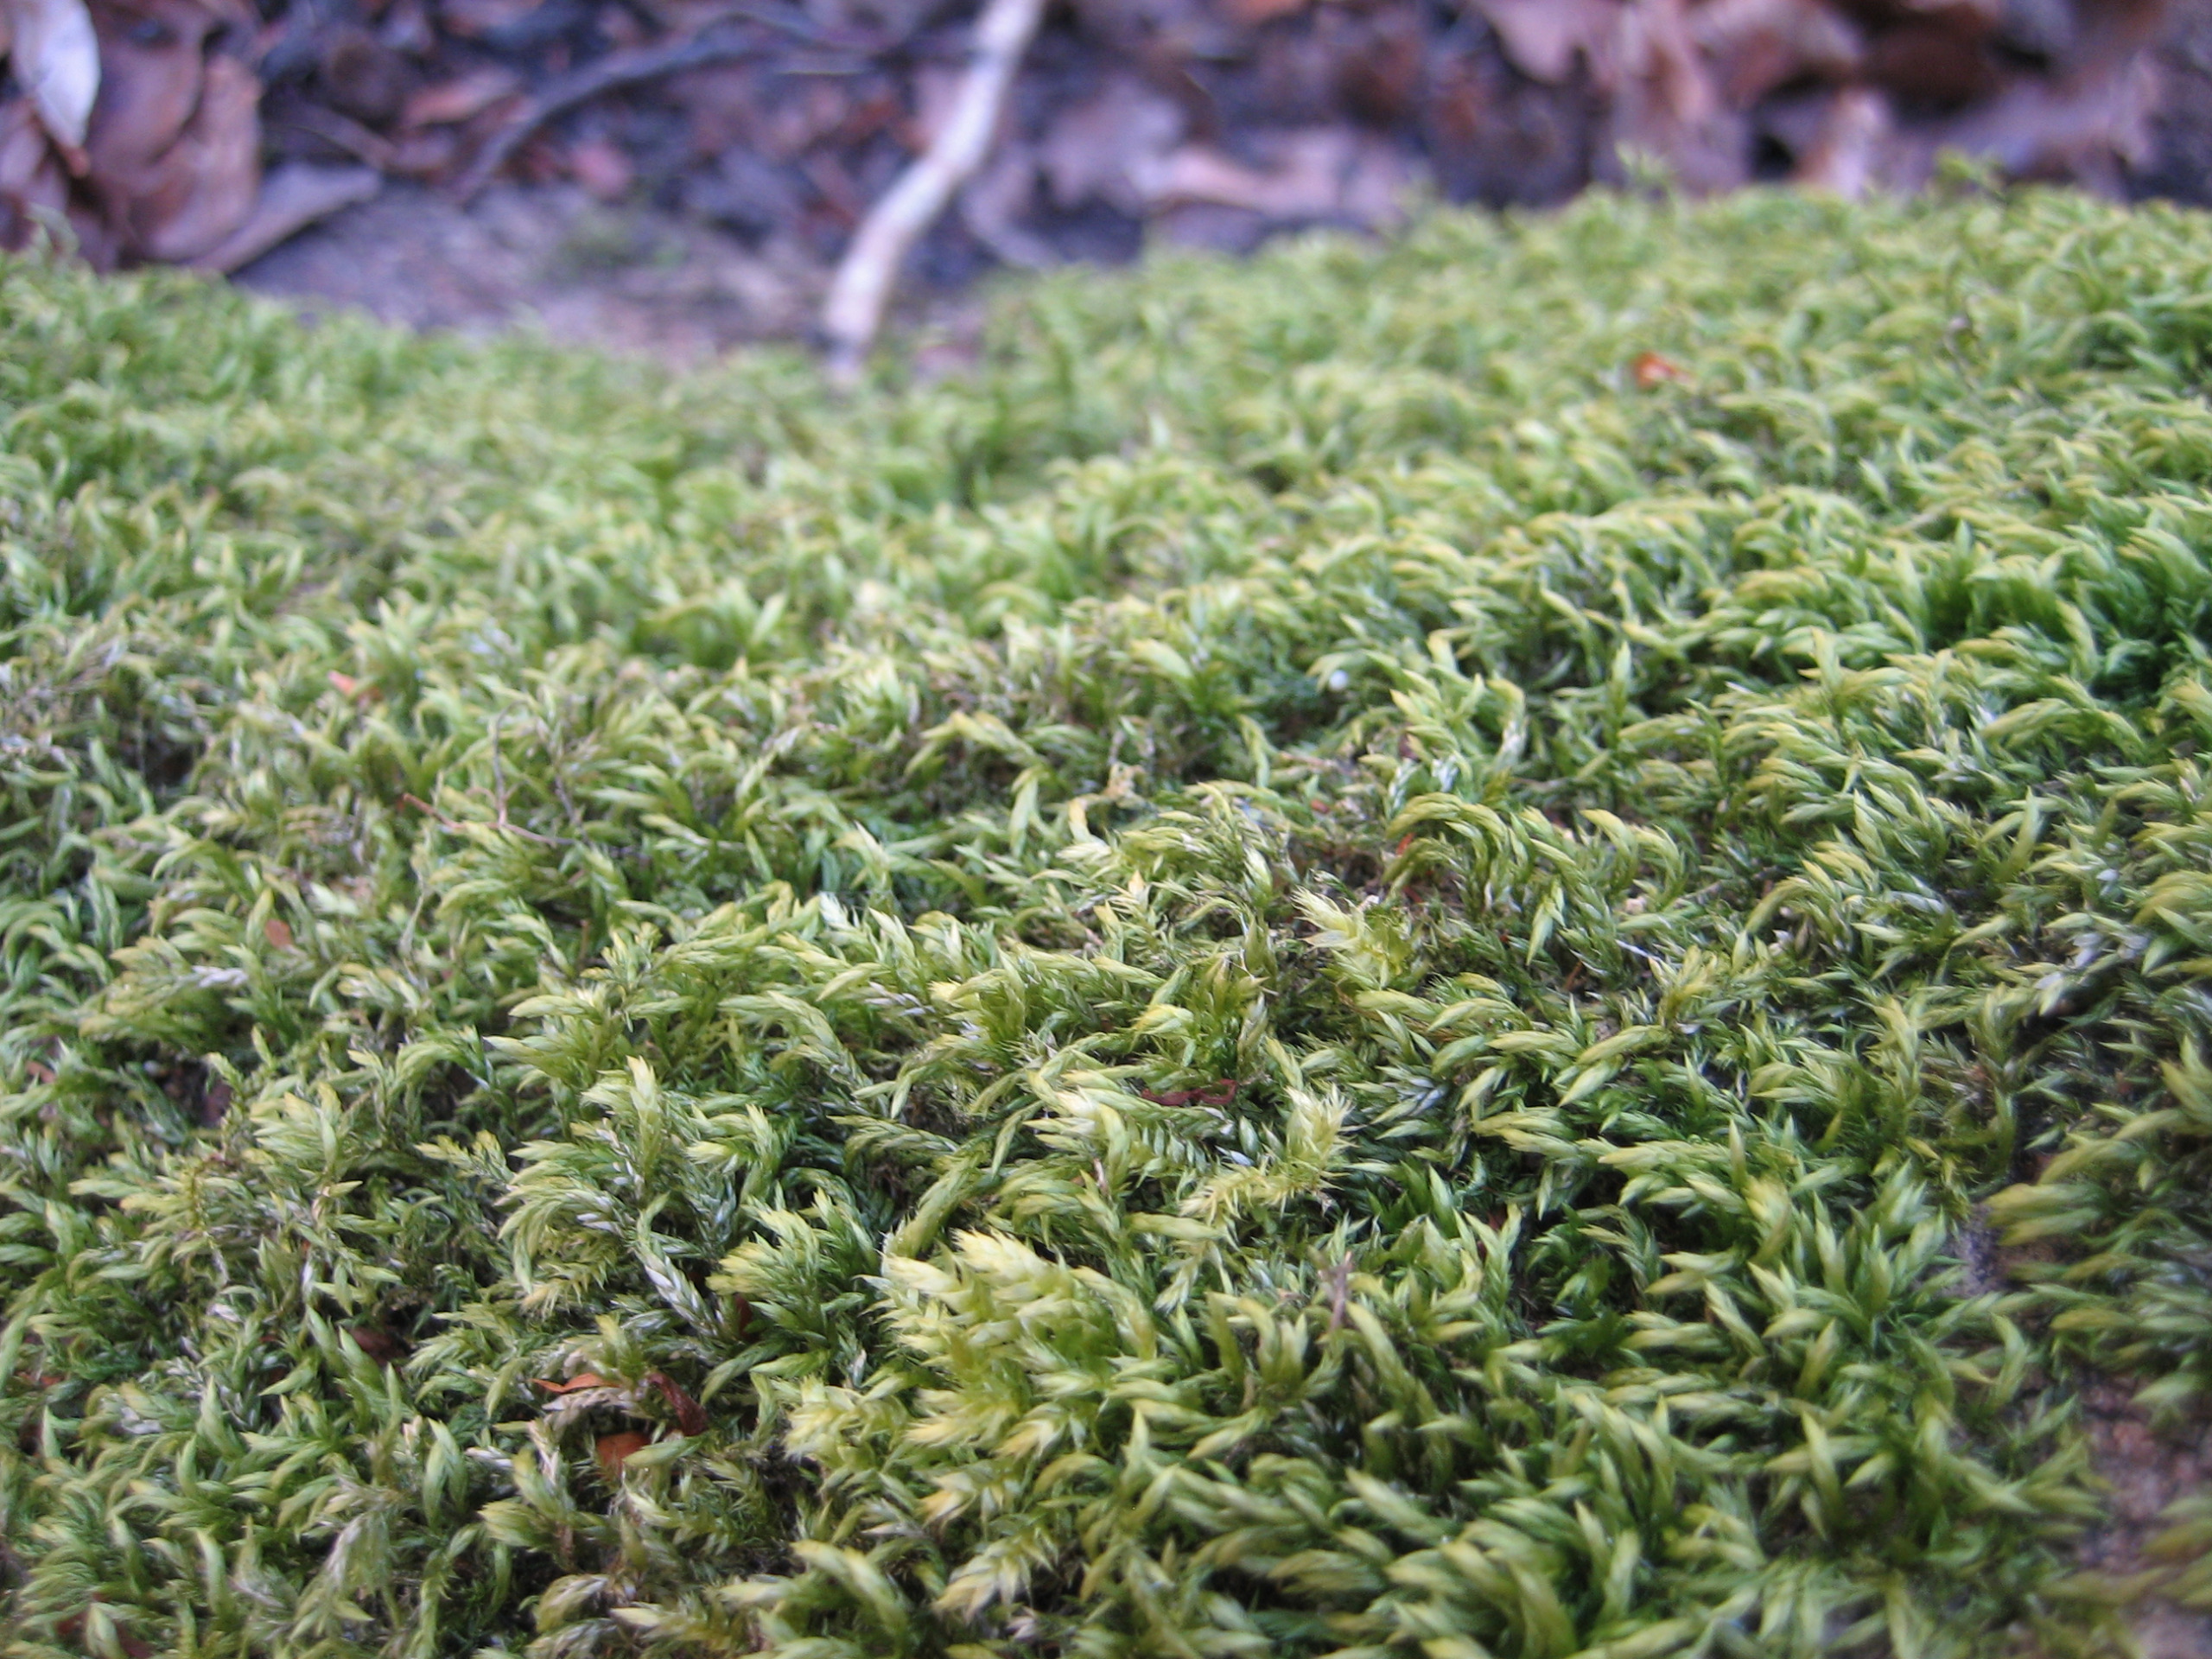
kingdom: Plantae
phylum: Bryophyta
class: Bryopsida
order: Hypnales
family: Lembophyllaceae
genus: Isothecium
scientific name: Isothecium alopecuroides
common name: Stor stammemos
